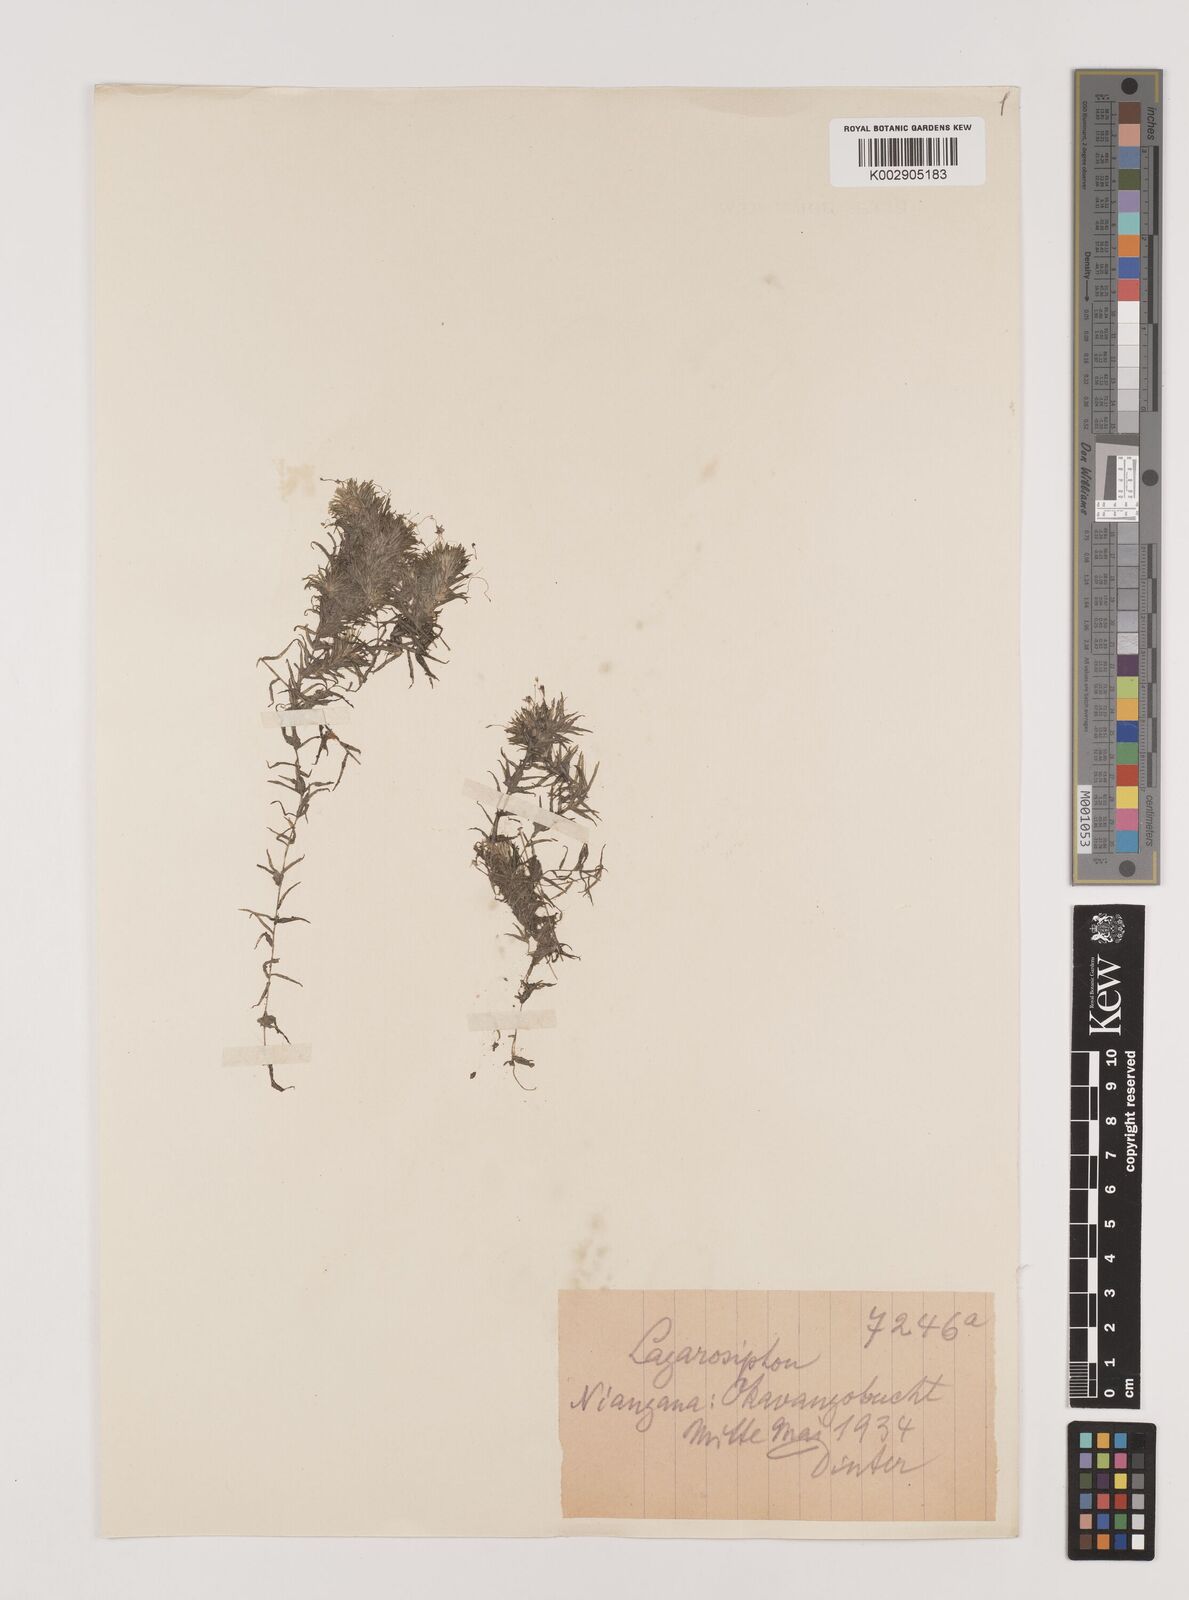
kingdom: Plantae
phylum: Tracheophyta
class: Liliopsida
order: Alismatales
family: Hydrocharitaceae
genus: Lagarosiphon
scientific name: Lagarosiphon
